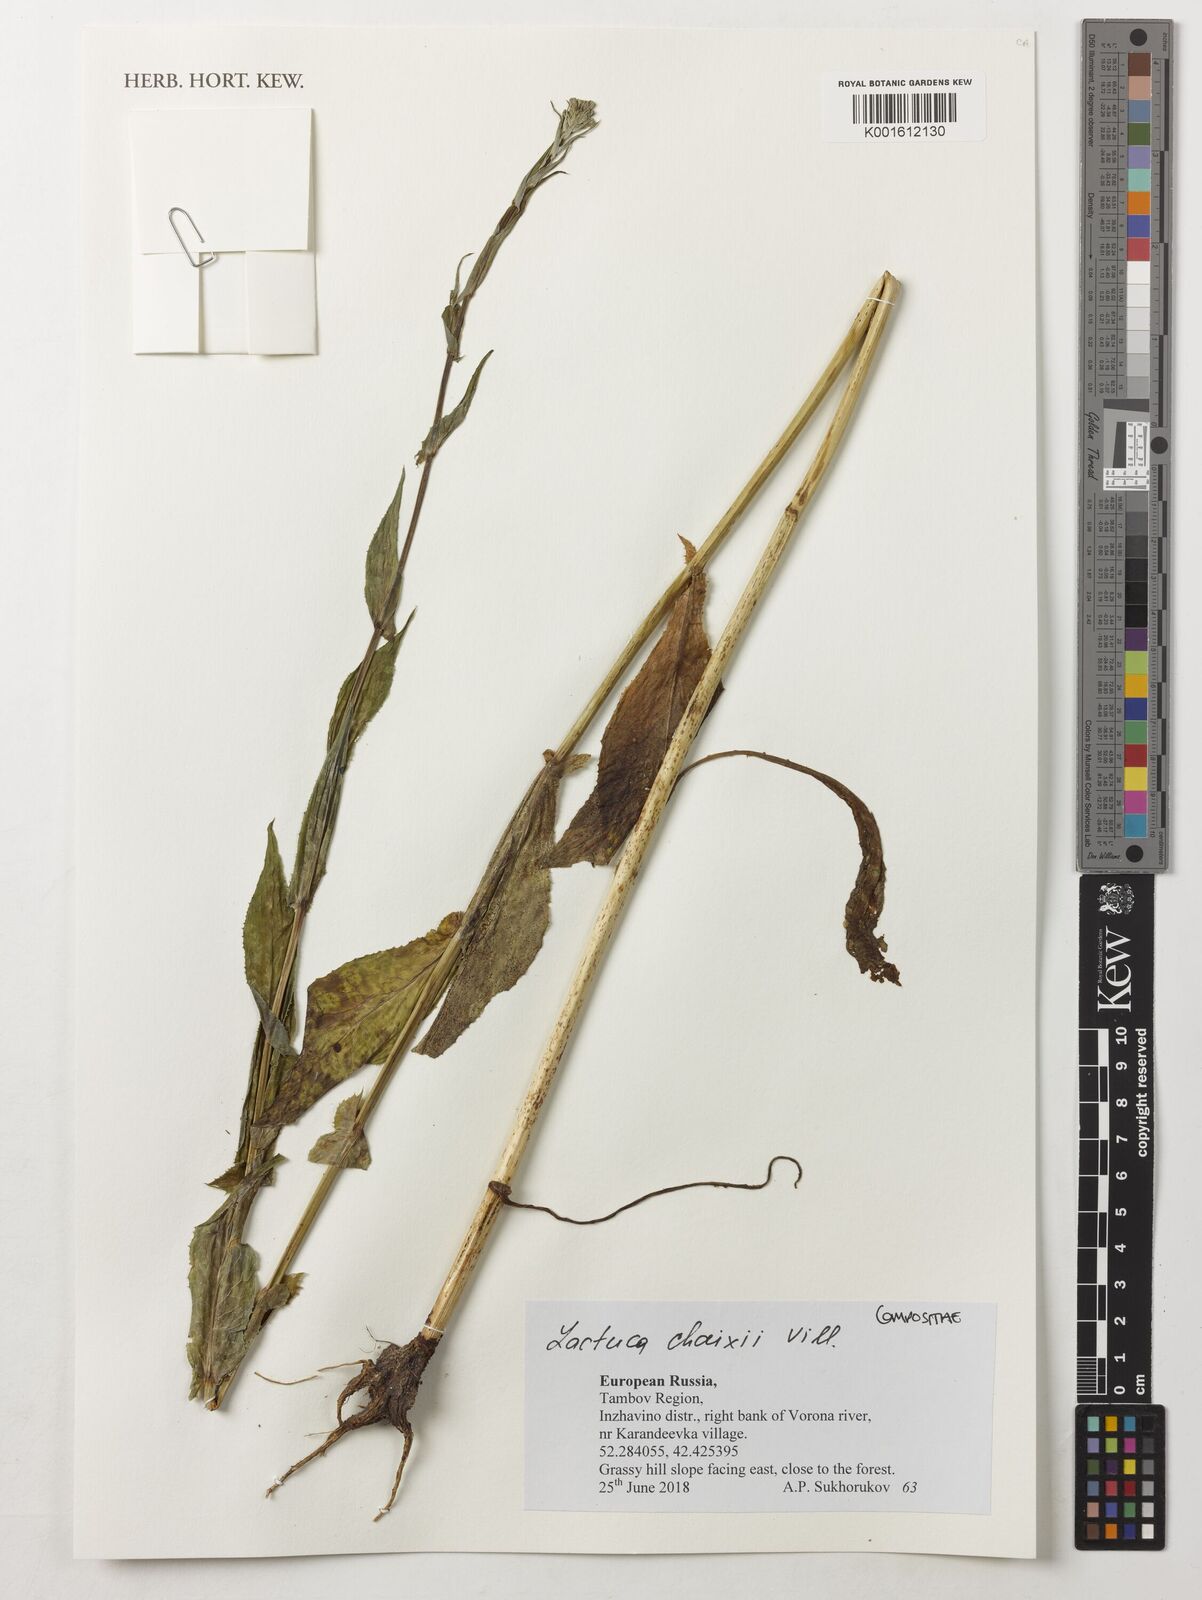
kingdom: Plantae
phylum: Tracheophyta
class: Magnoliopsida
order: Asterales
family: Asteraceae
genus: Lactuca
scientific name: Lactuca quercina
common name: Wild lettuce
